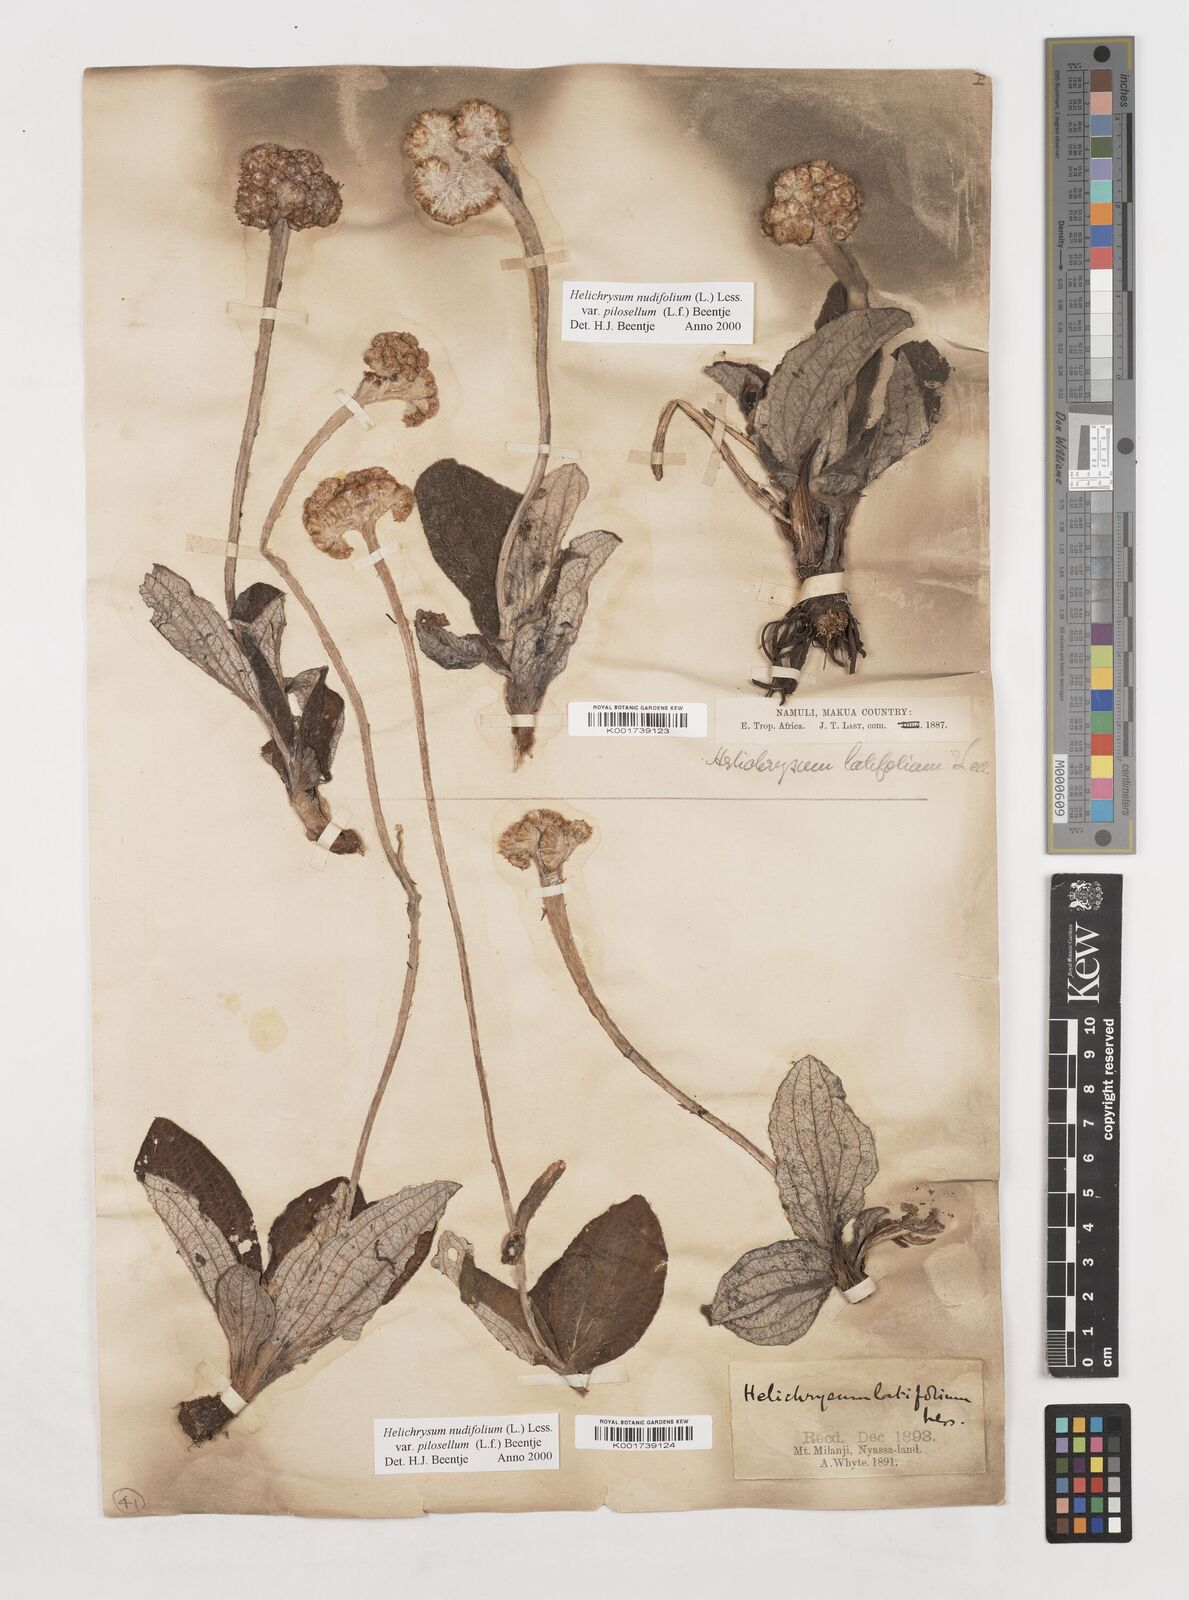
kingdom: Plantae
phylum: Tracheophyta
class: Magnoliopsida
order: Asterales
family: Asteraceae
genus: Helichrysum
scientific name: Helichrysum nudifolium
